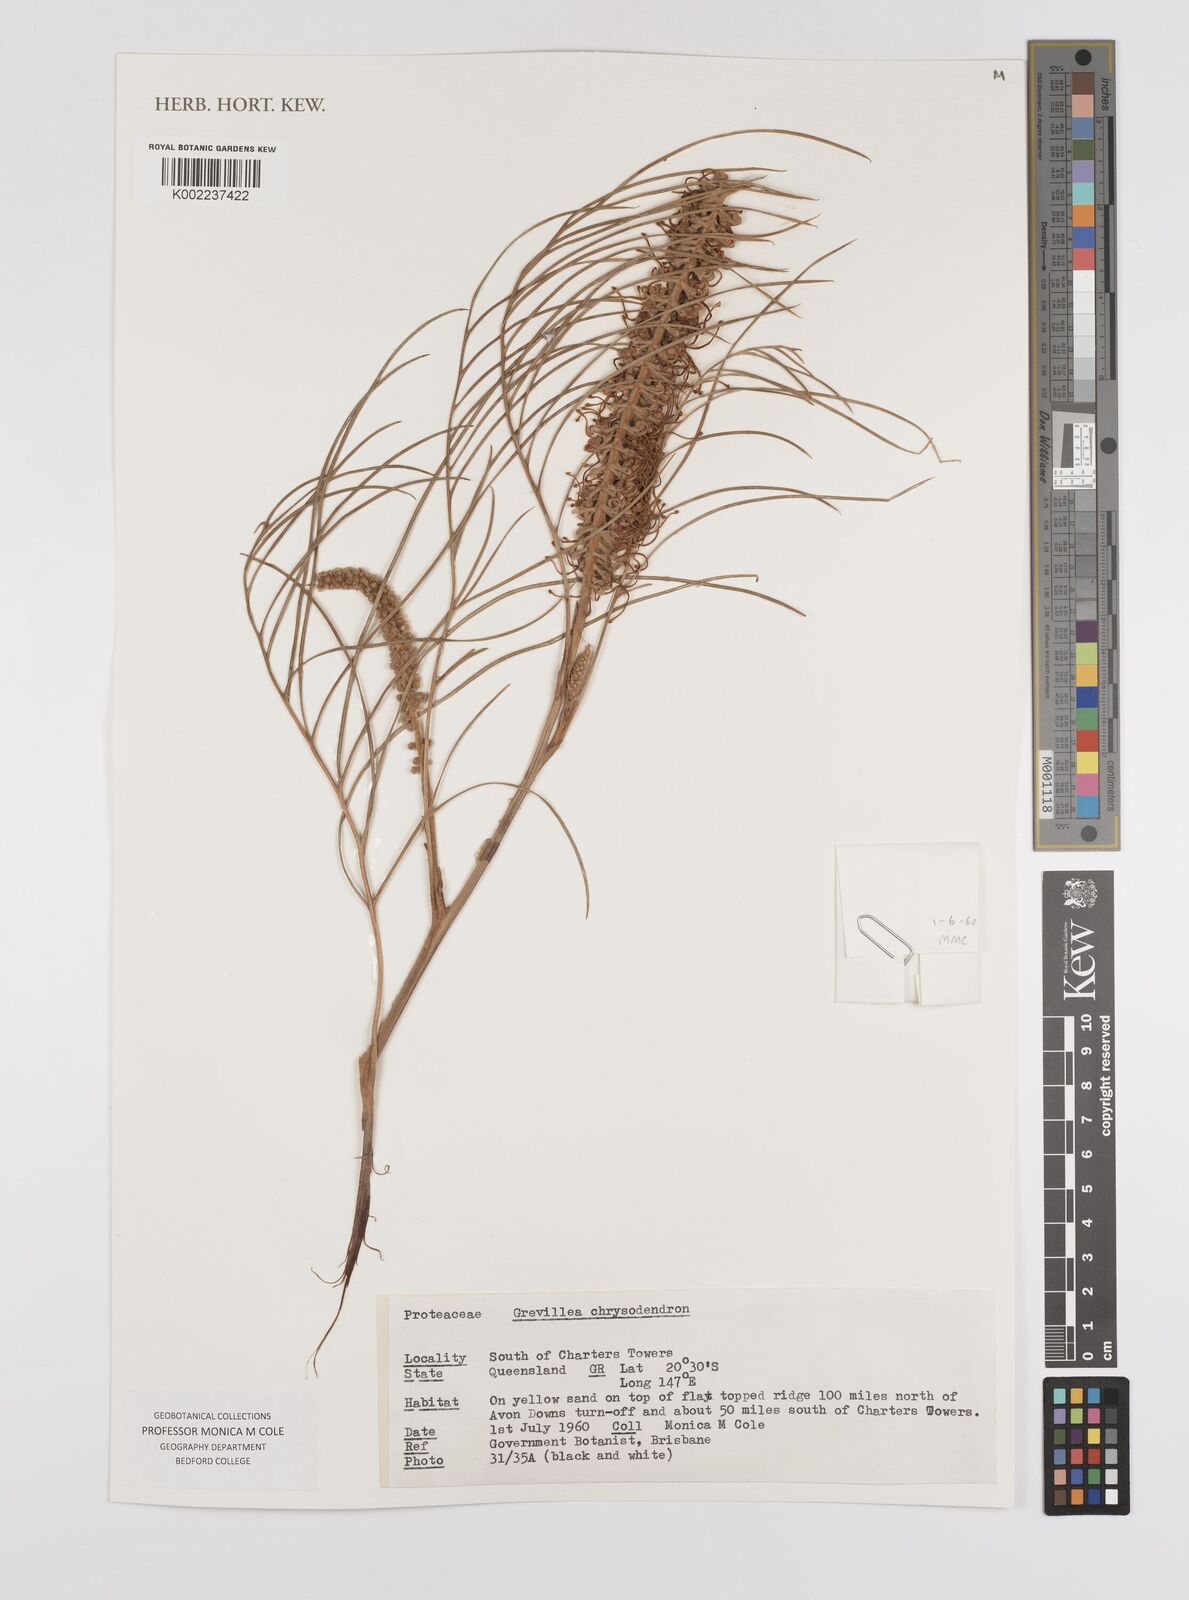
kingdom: Plantae
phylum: Tracheophyta
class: Magnoliopsida
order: Proteales
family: Proteaceae
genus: Grevillea
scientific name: Grevillea pteridifolia
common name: Golden grevillea
